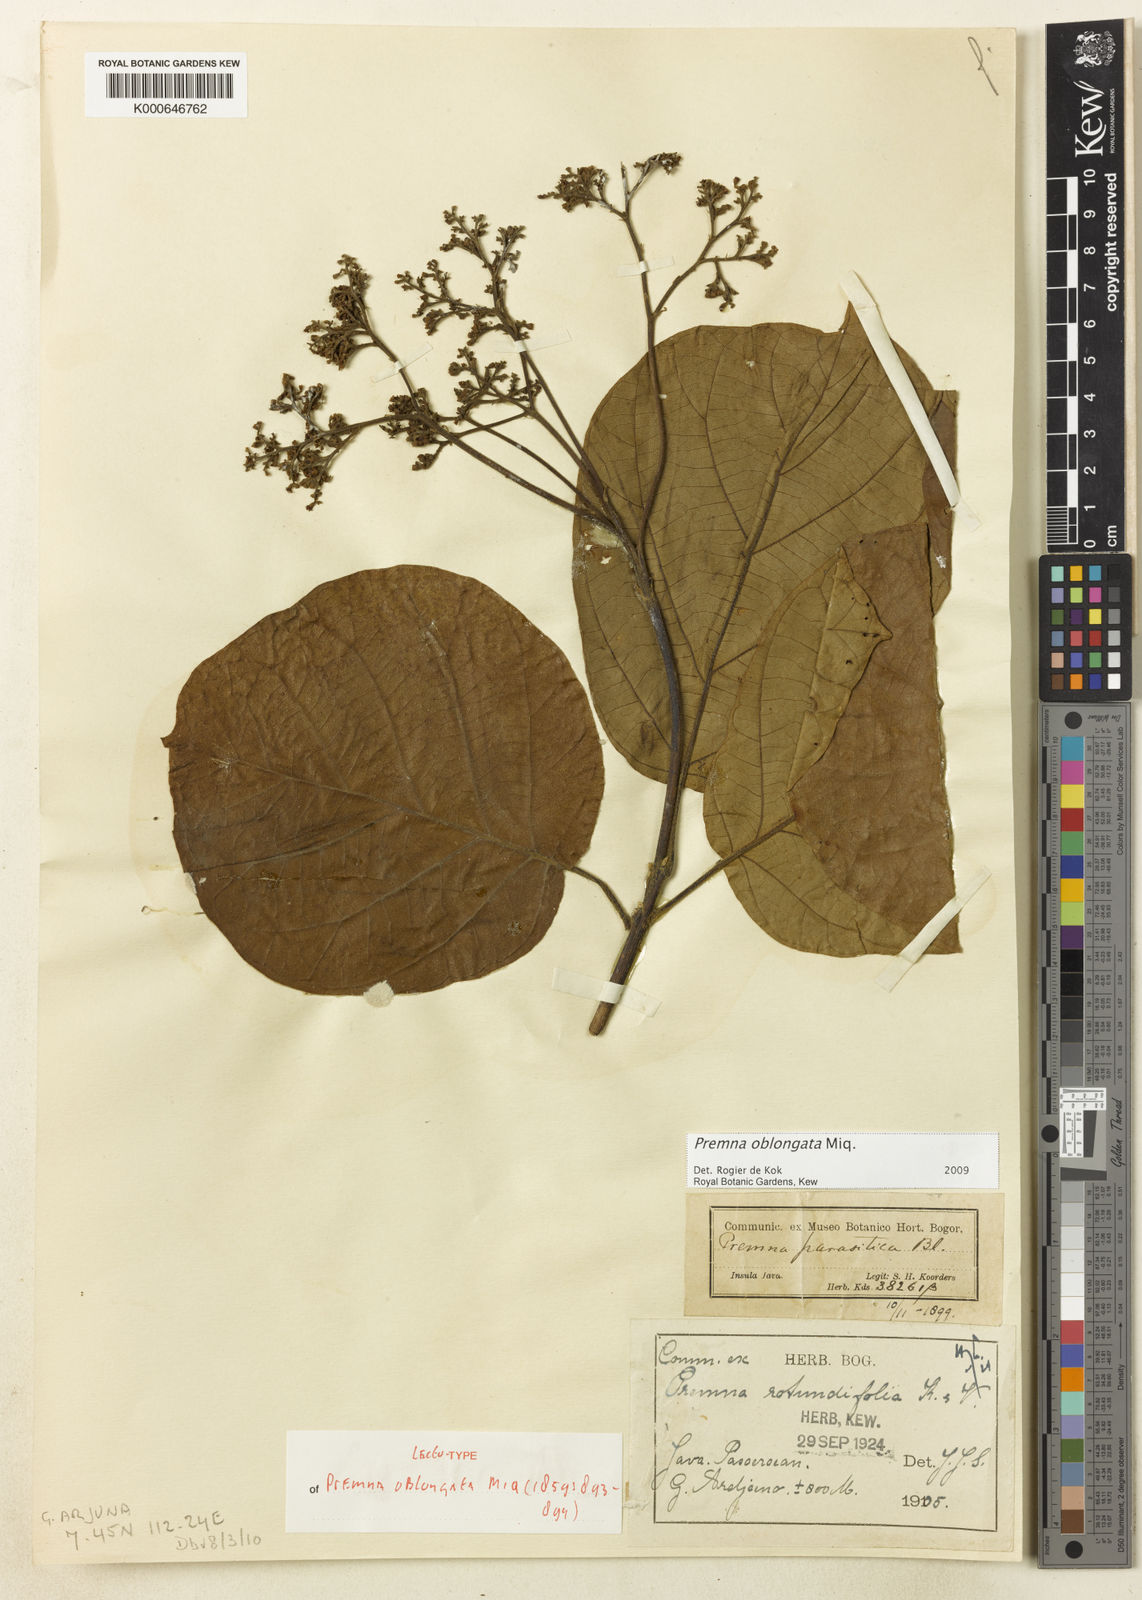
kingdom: Plantae
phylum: Tracheophyta
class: Magnoliopsida
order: Lamiales
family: Lamiaceae
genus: Premna
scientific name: Premna oblongata
